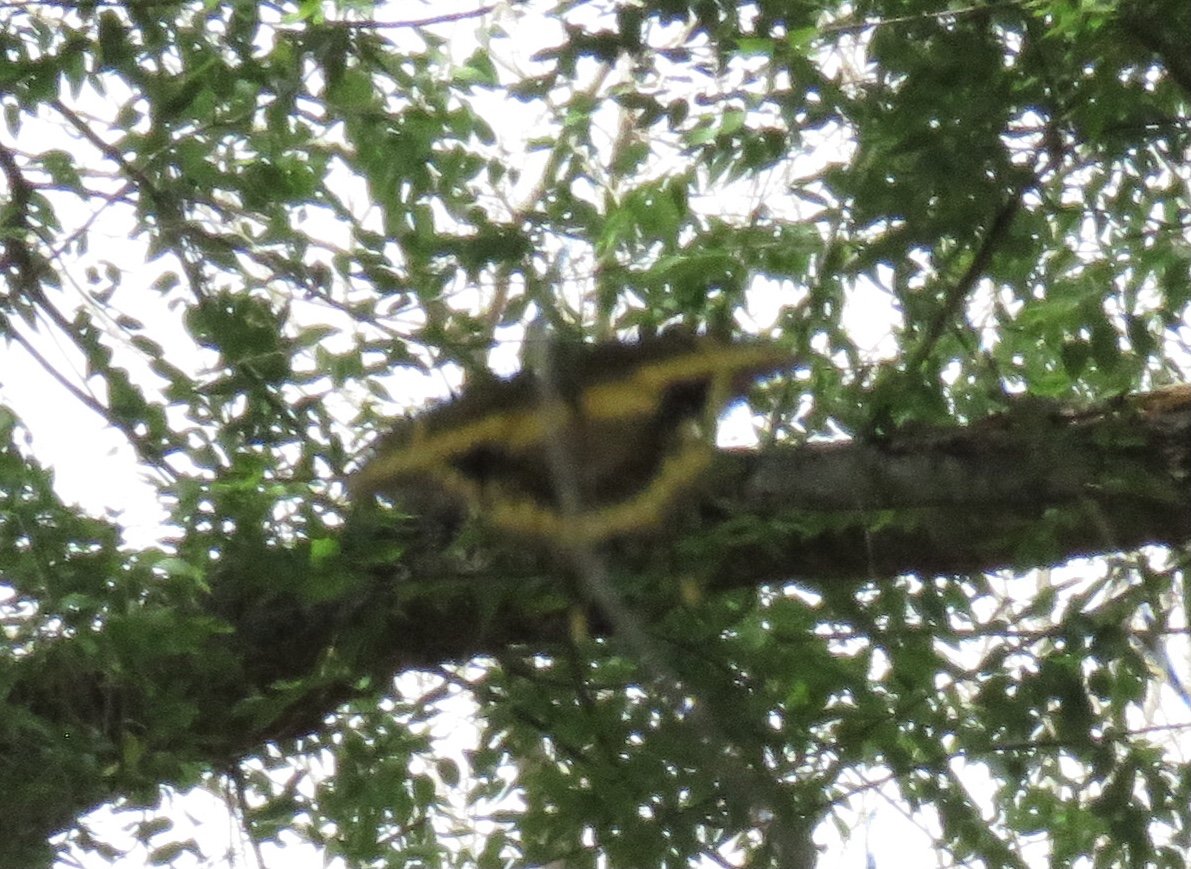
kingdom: Animalia
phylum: Arthropoda
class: Insecta
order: Lepidoptera
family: Papilionidae
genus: Papilio
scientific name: Papilio
